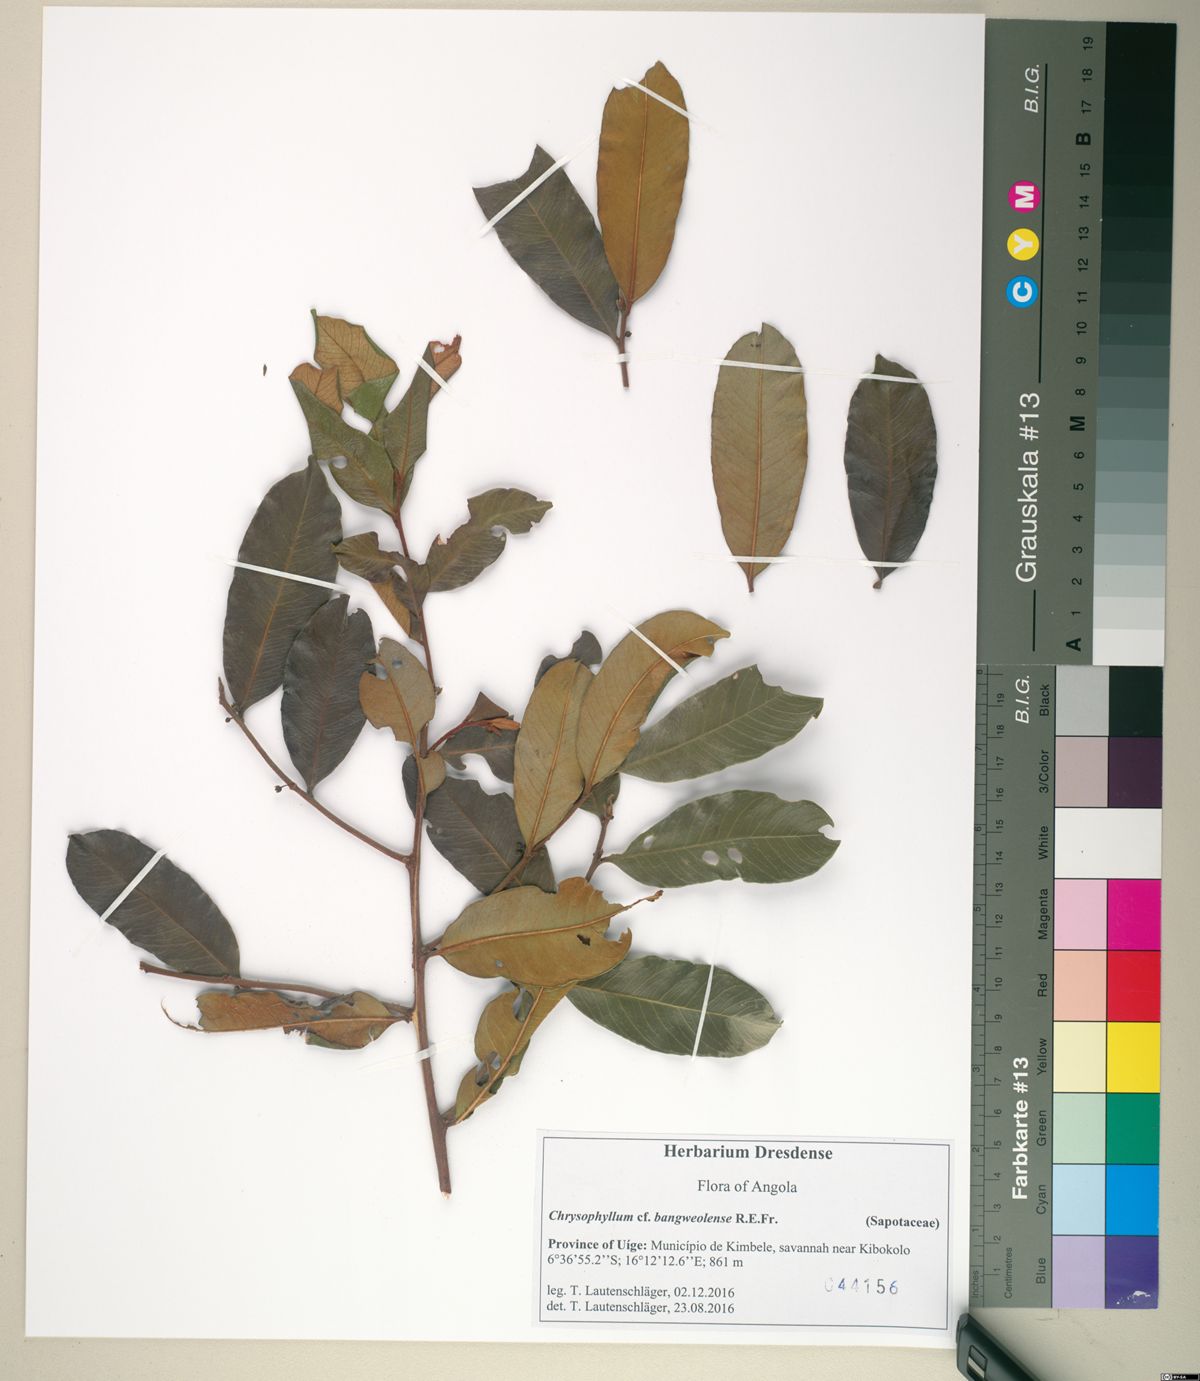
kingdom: Plantae
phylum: Tracheophyta
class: Magnoliopsida
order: Ericales
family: Sapotaceae
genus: Donella
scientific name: Donella bangweolensis
